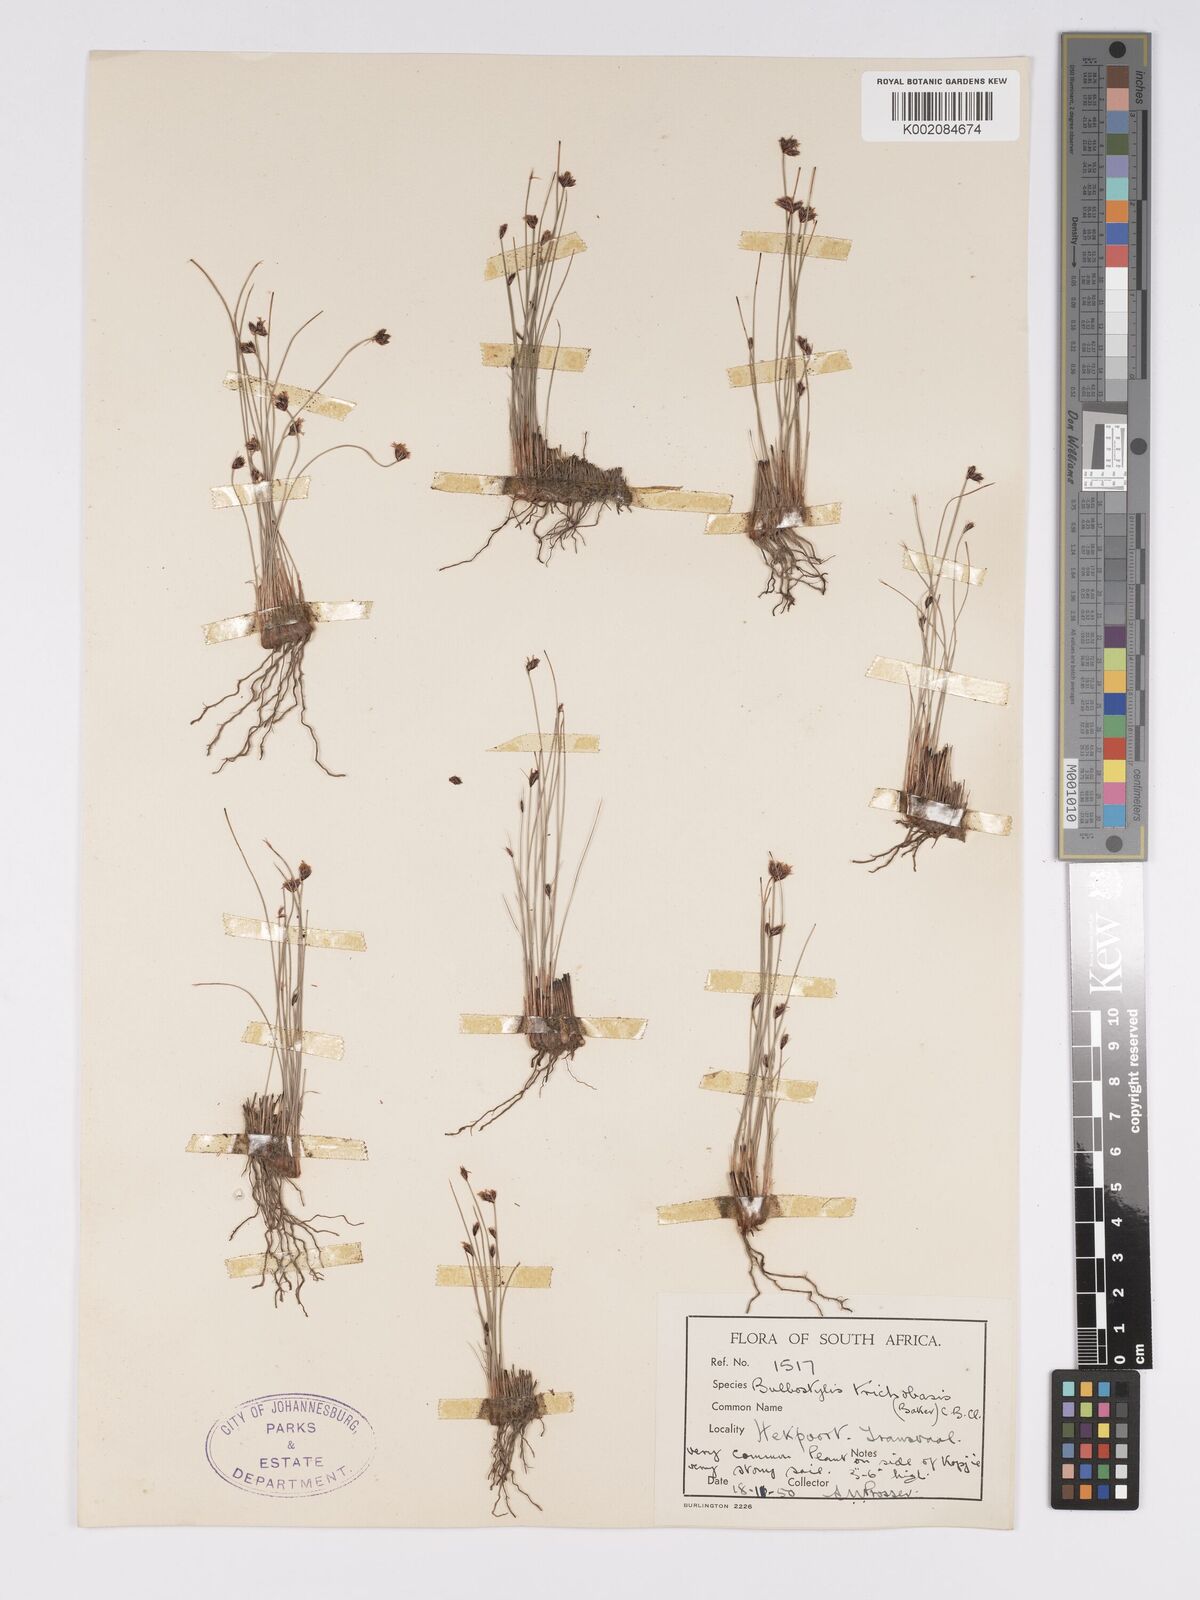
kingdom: Plantae
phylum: Tracheophyta
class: Liliopsida
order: Poales
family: Cyperaceae
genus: Bulbostylis
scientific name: Bulbostylis oritrephes
